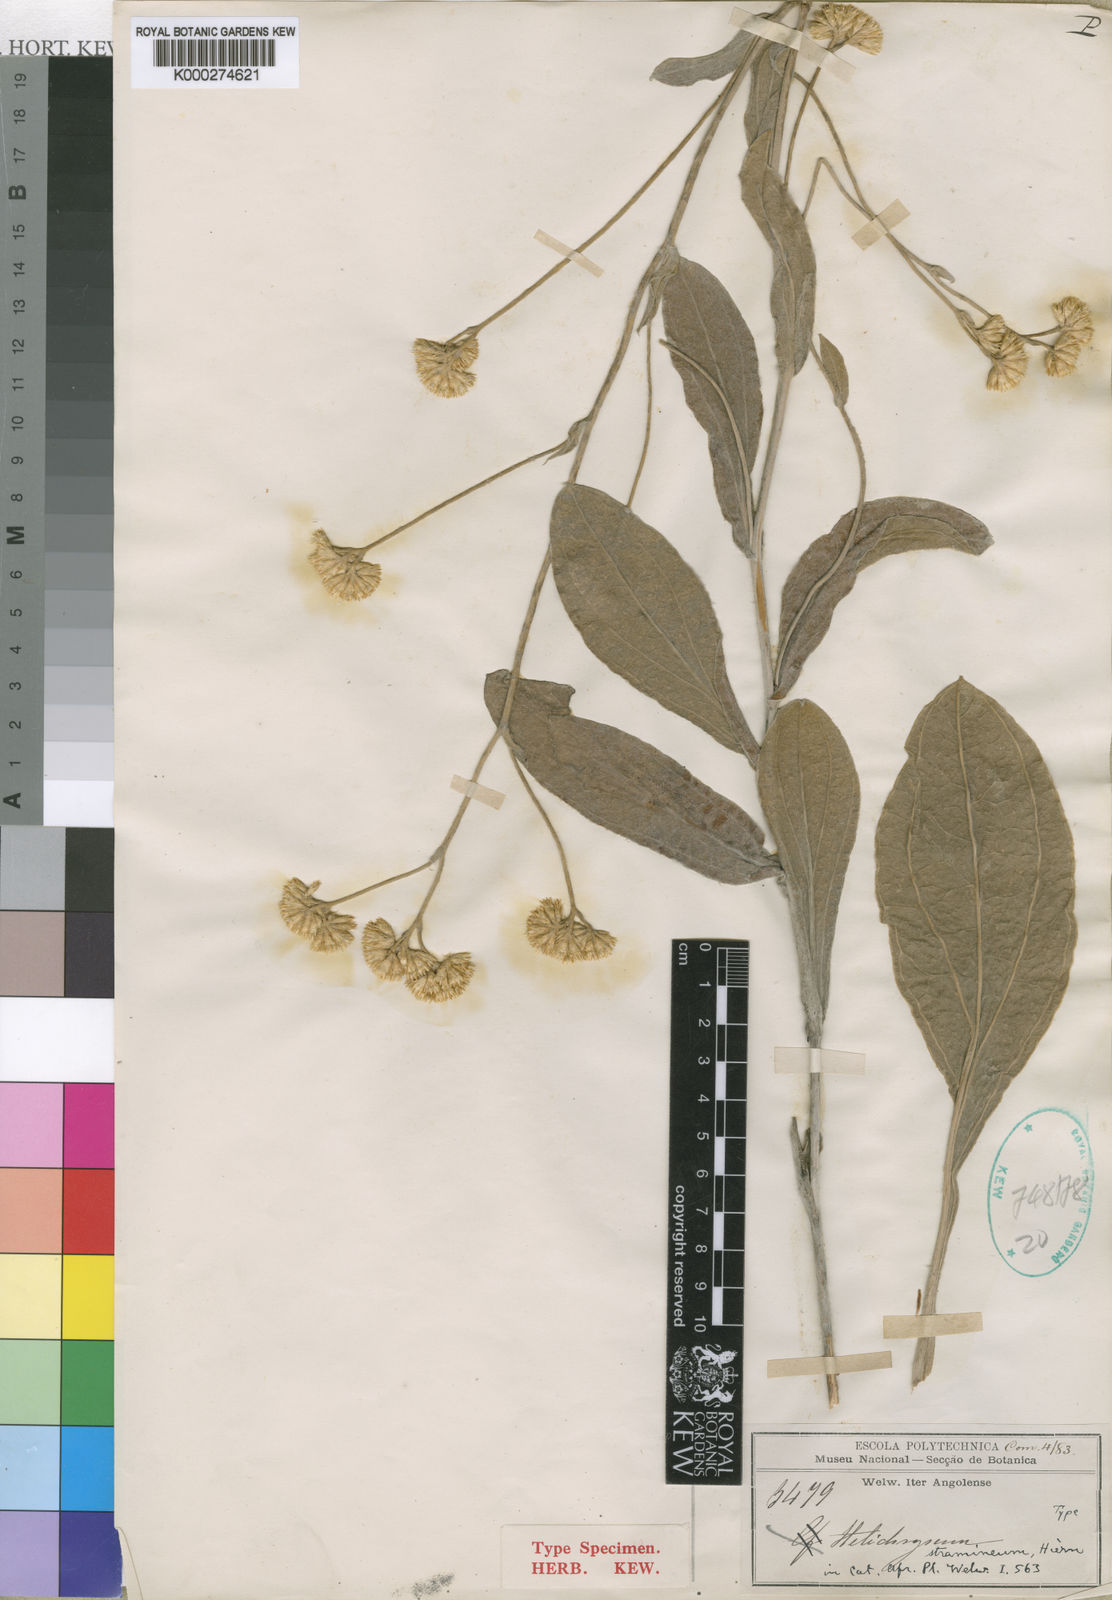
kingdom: Plantae
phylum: Tracheophyta
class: Magnoliopsida
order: Asterales
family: Asteraceae
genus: Helichrysum
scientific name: Helichrysum stramineum
